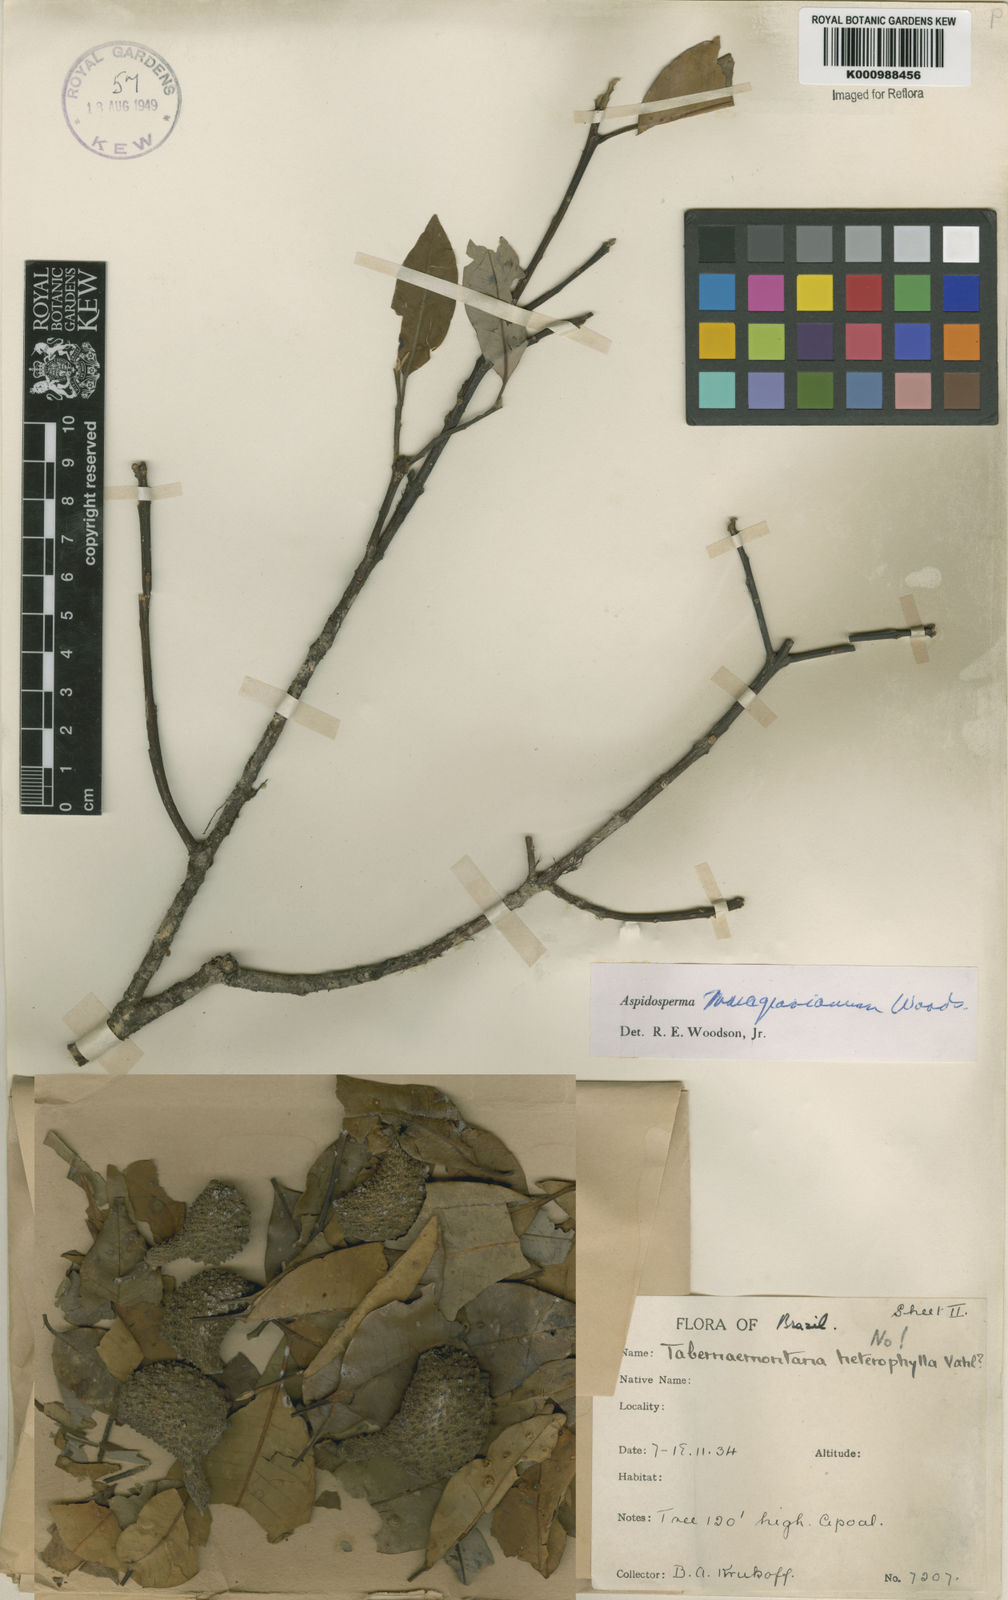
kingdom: Plantae
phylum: Tracheophyta
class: Magnoliopsida
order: Gentianales
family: Apocynaceae
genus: Aspidosperma
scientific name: Aspidosperma excelsum
